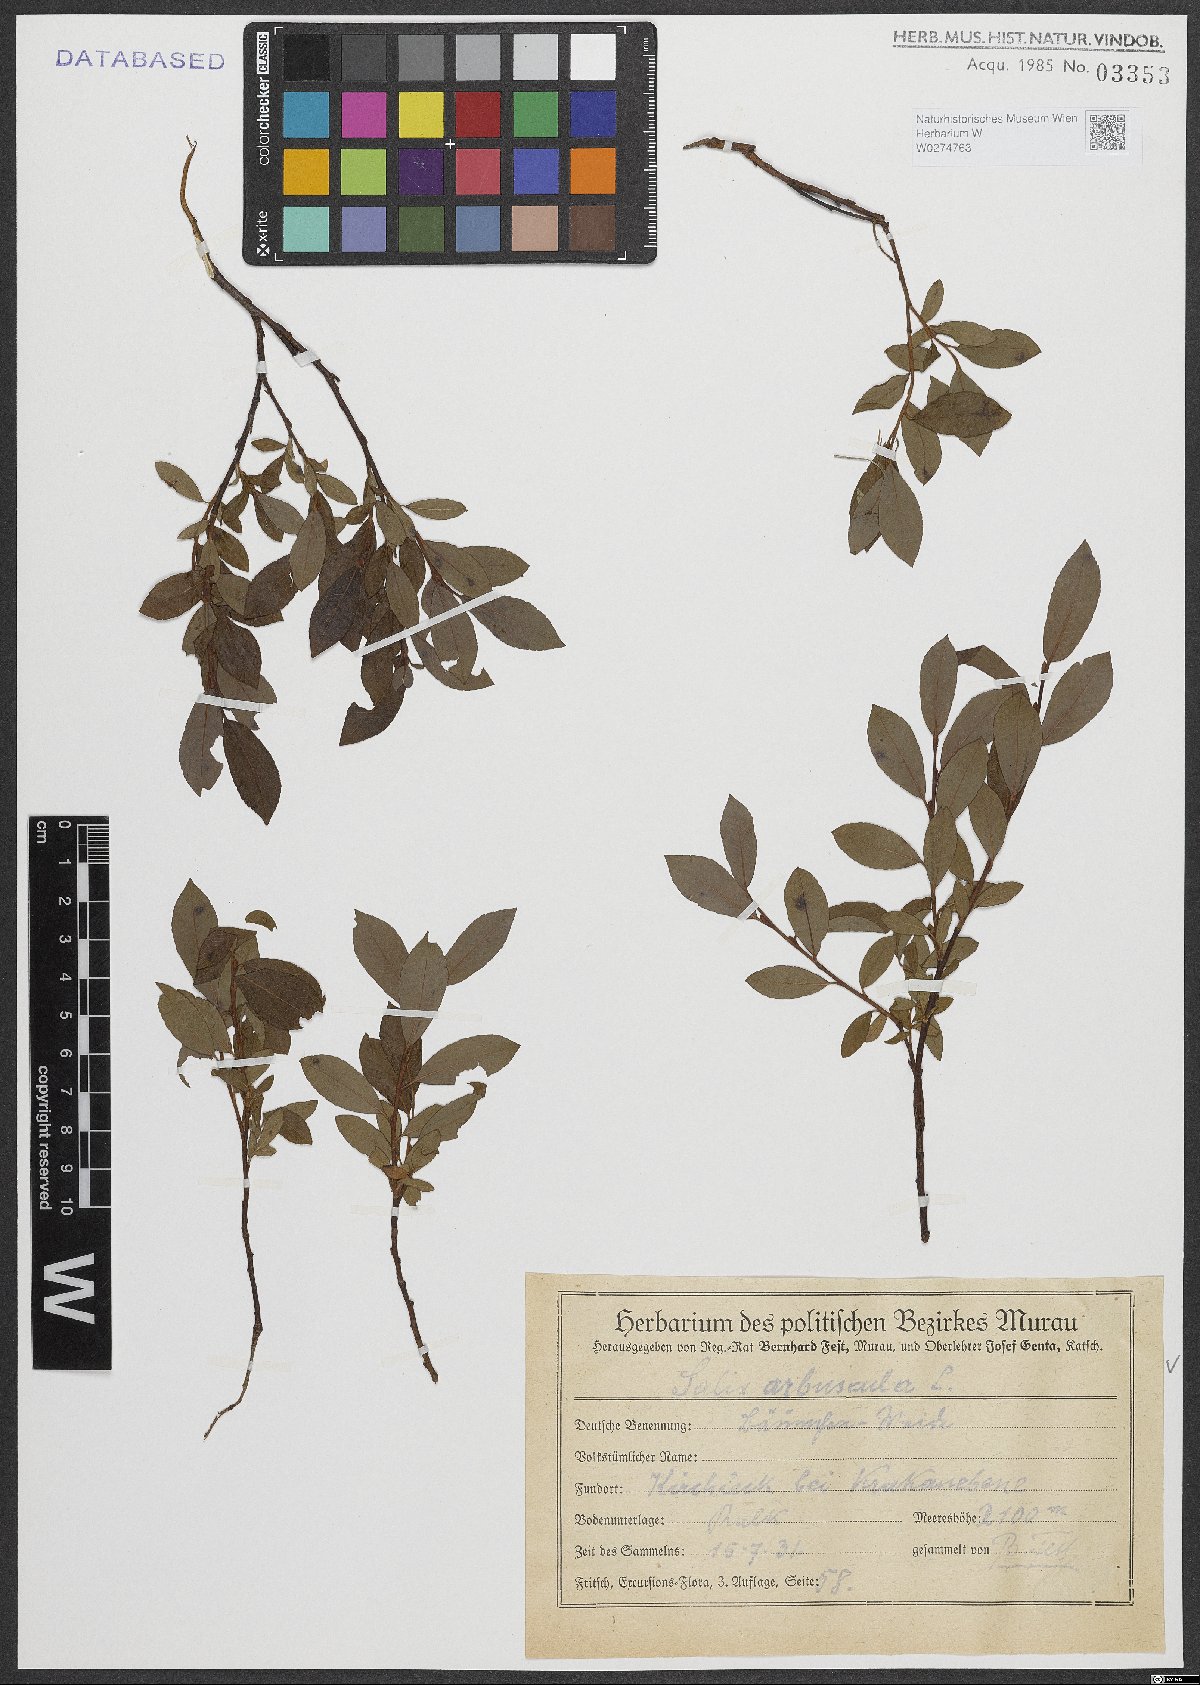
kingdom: Plantae
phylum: Tracheophyta
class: Magnoliopsida
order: Malpighiales
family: Salicaceae
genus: Salix
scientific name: Salix arbuscula
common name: Mountain willow
